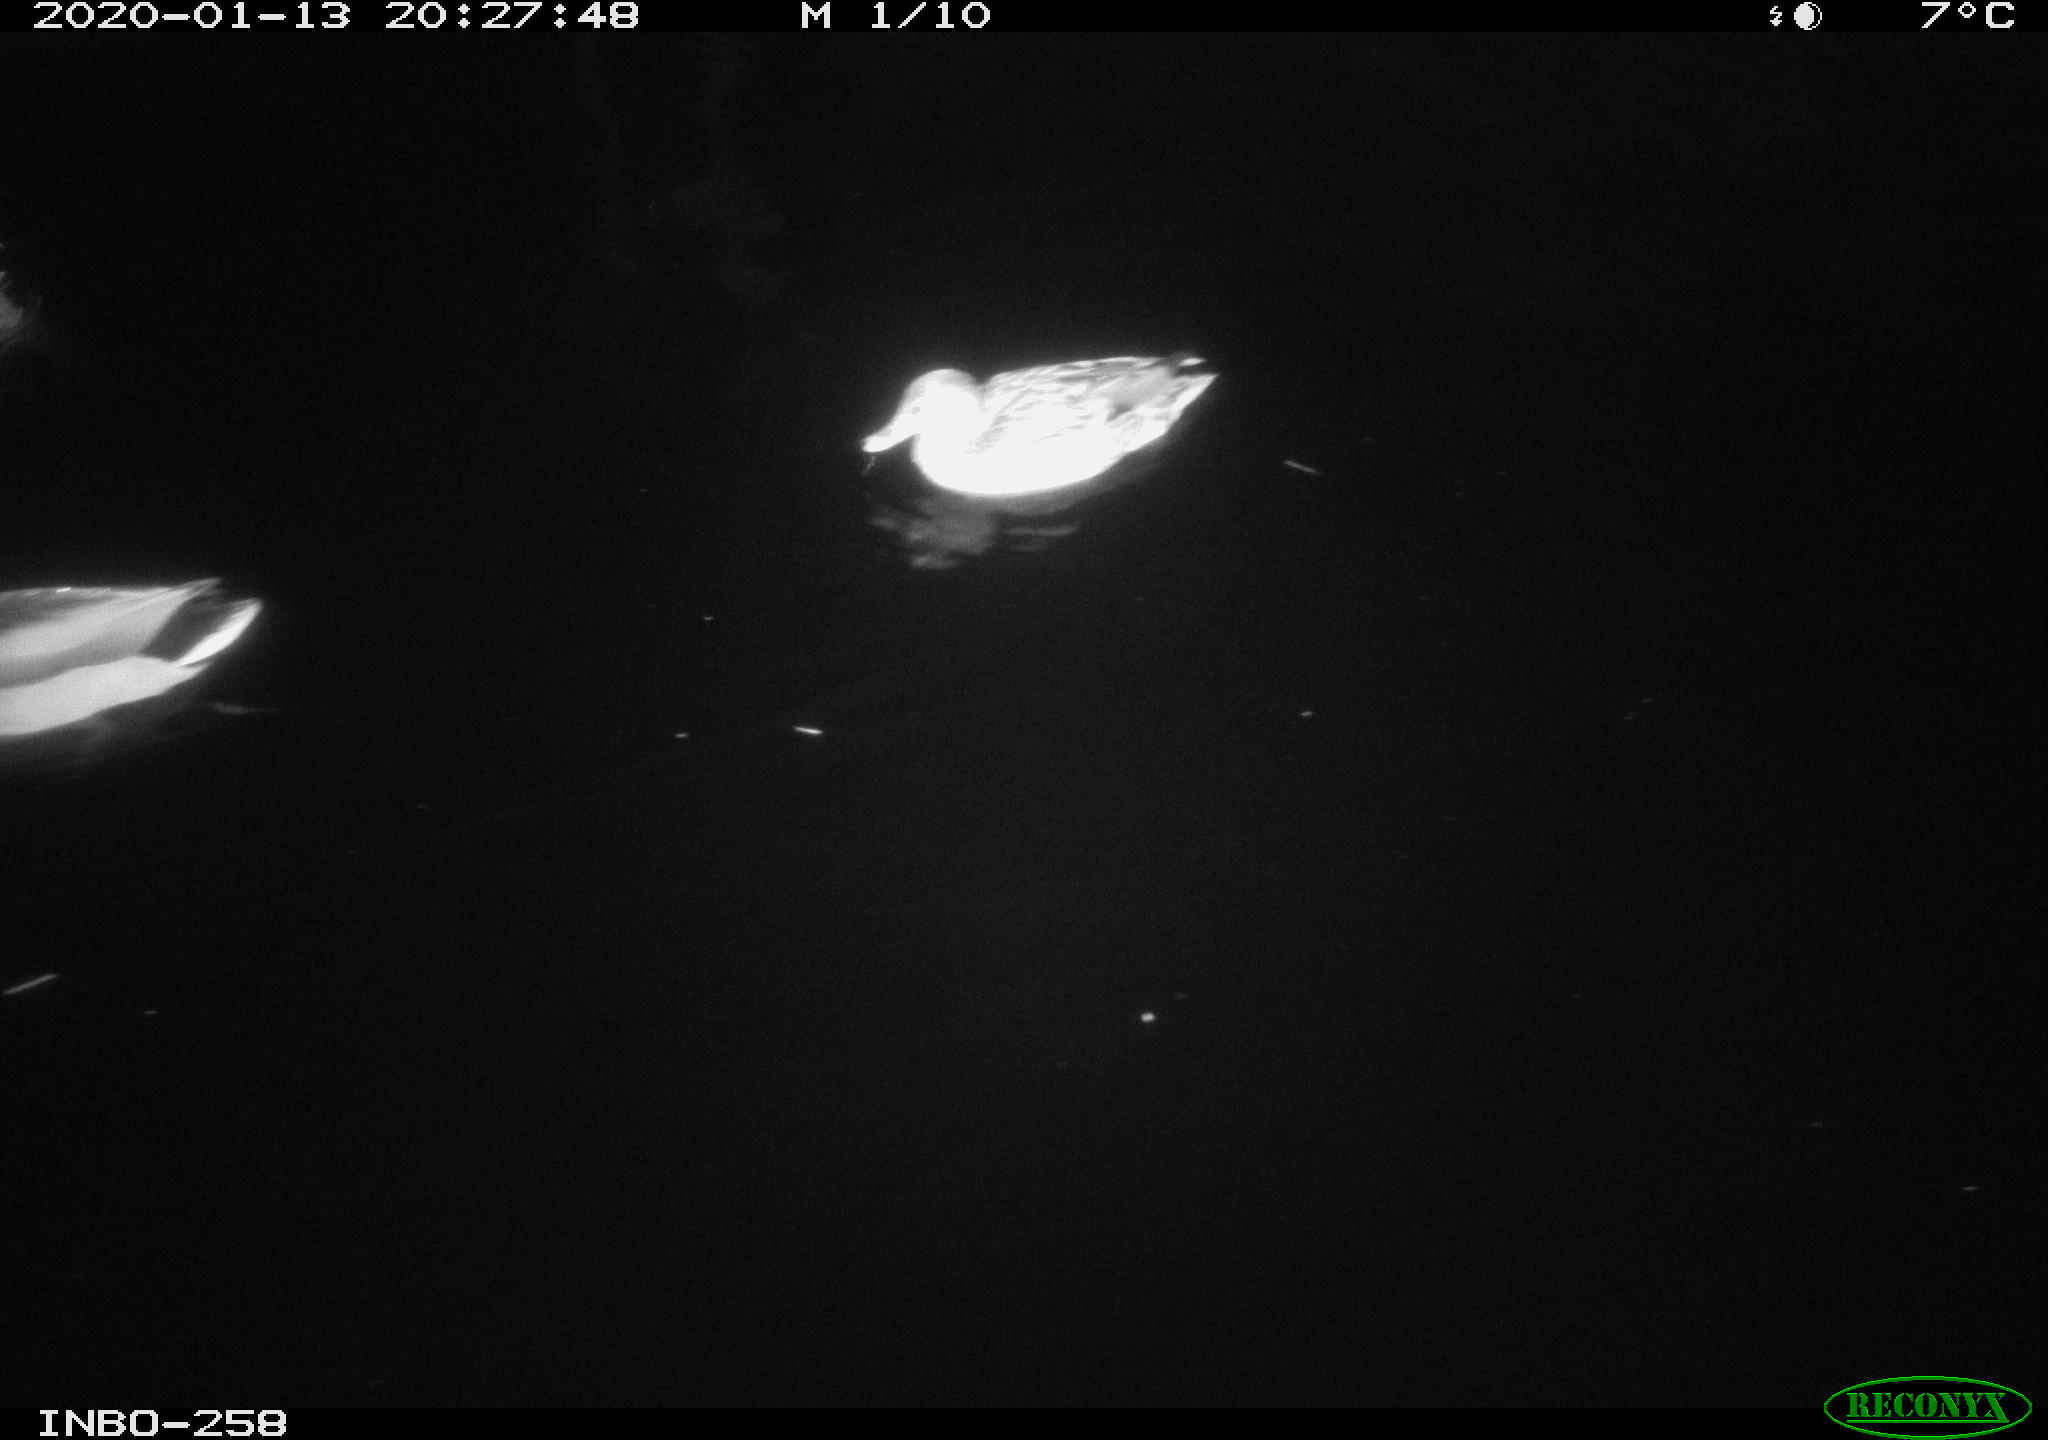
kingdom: Animalia
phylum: Chordata
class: Aves
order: Anseriformes
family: Anatidae
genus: Anas
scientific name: Anas platyrhynchos
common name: Mallard
